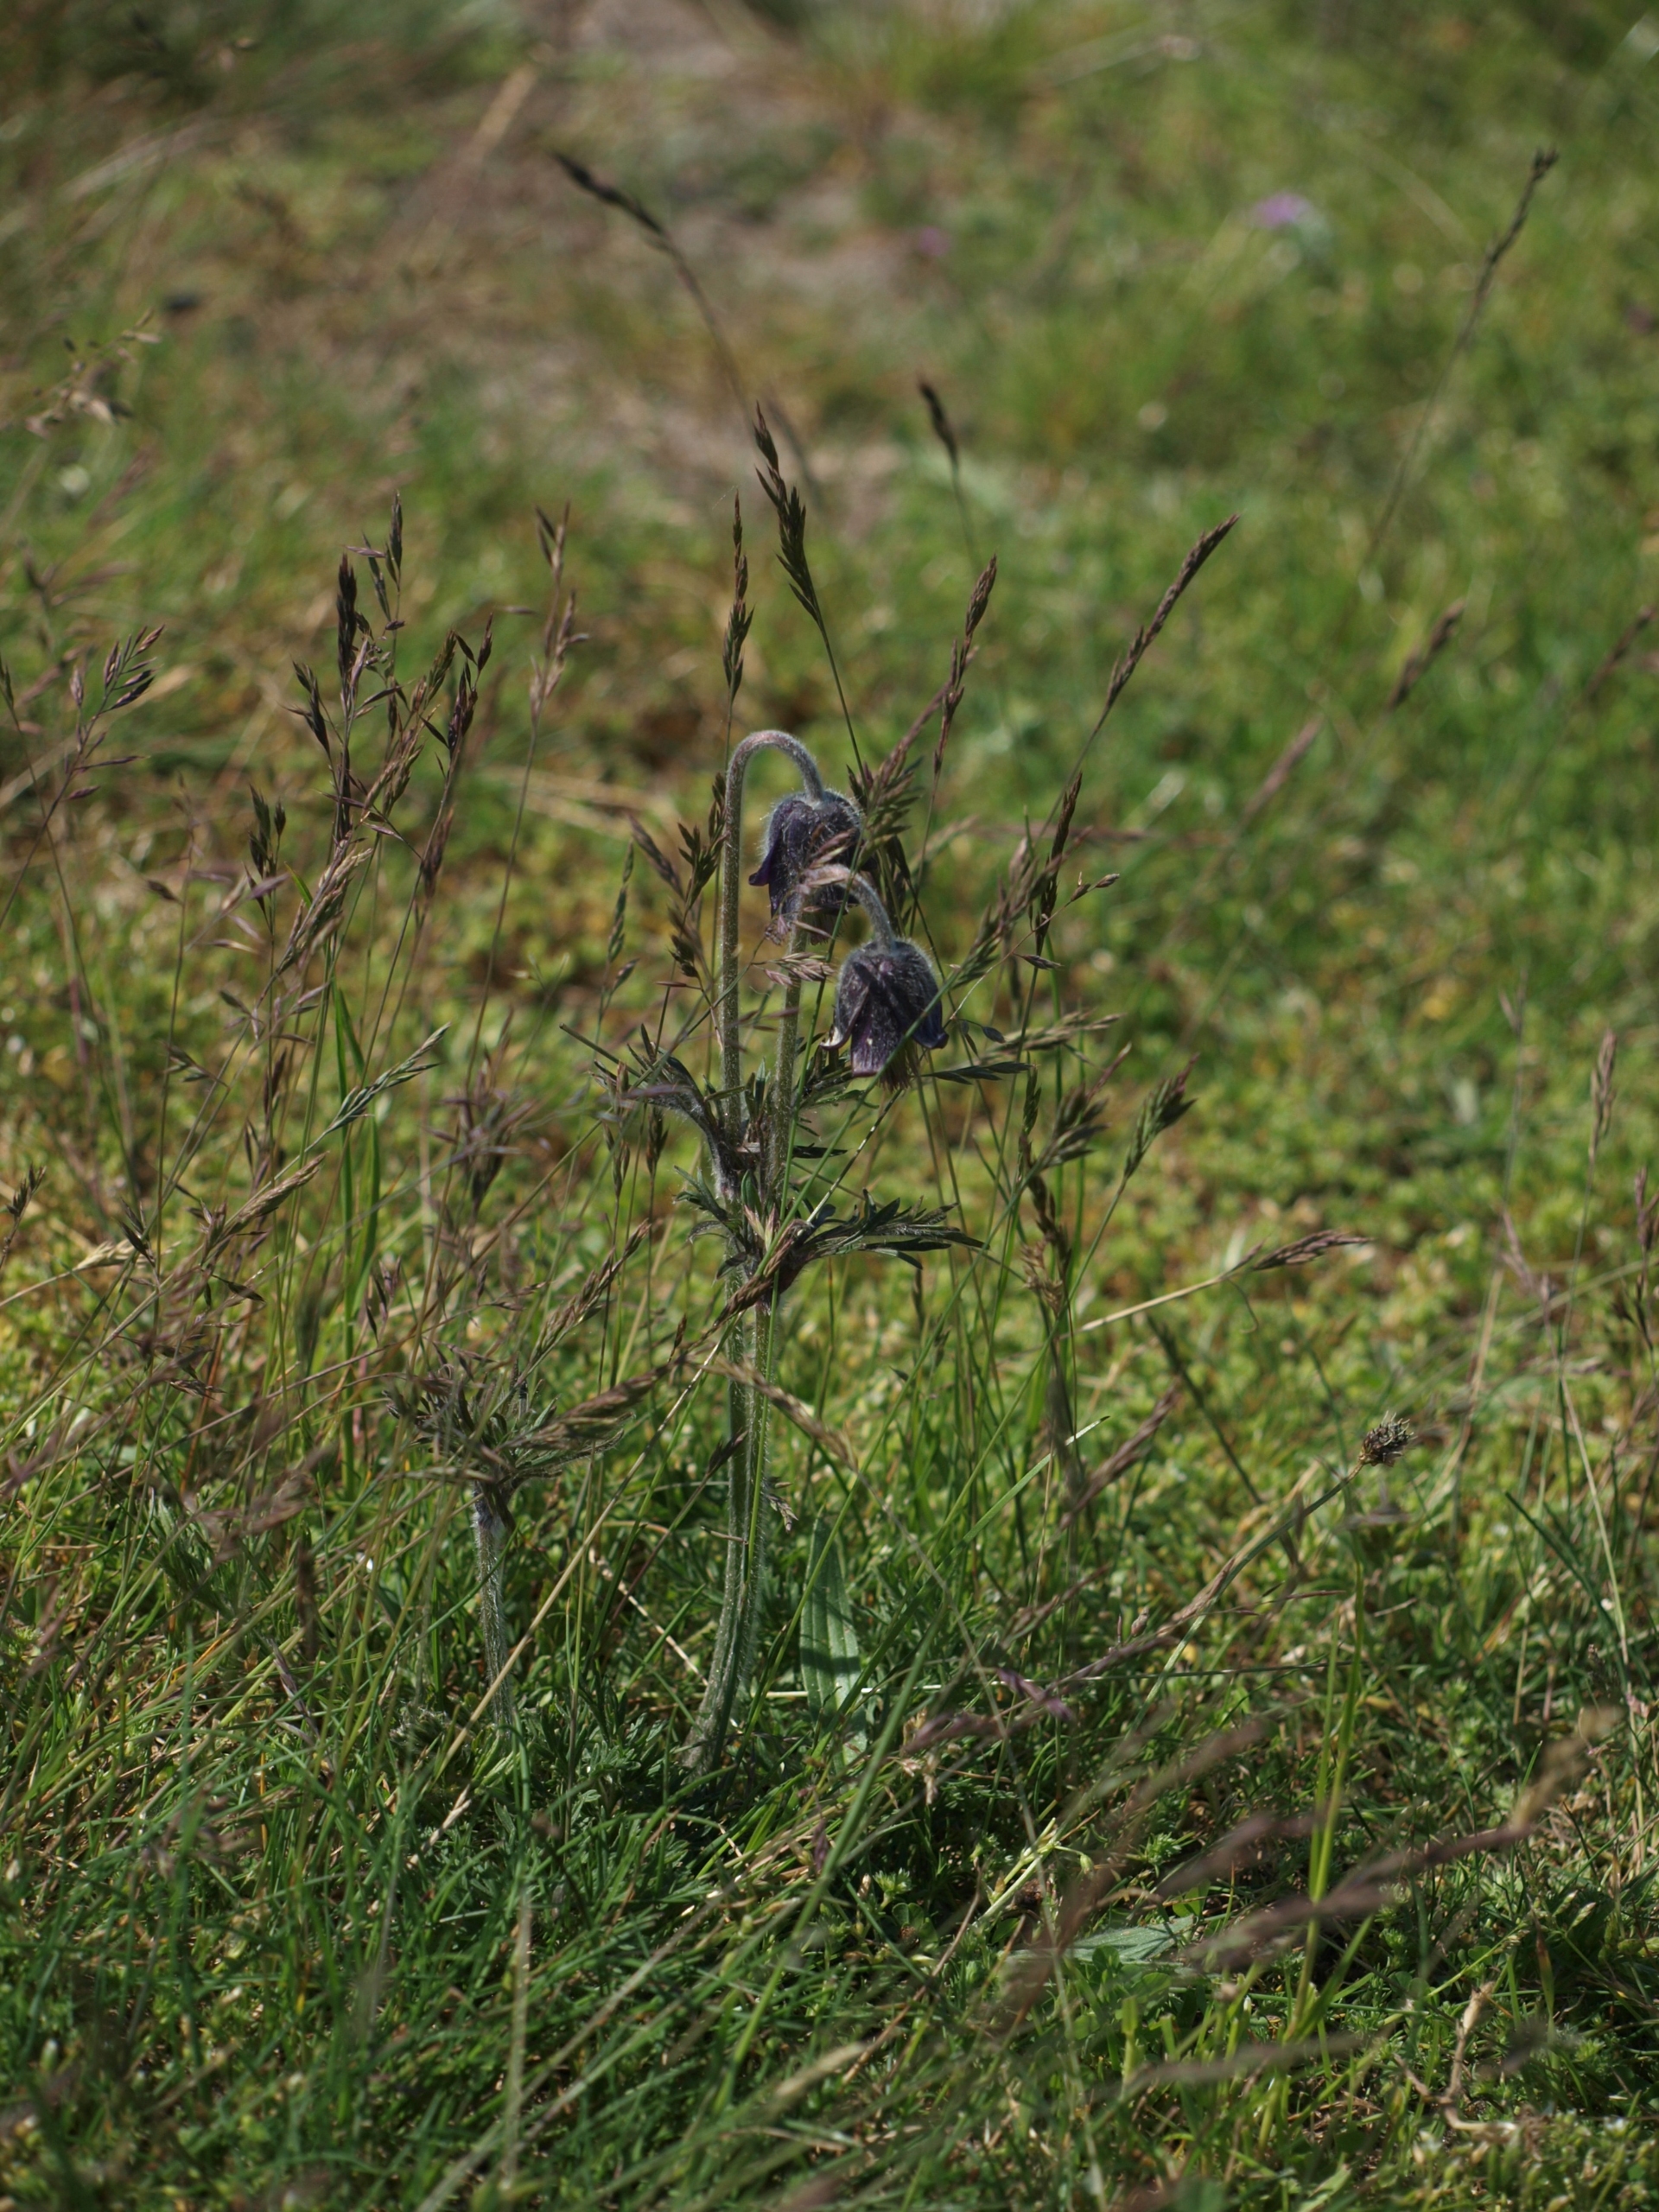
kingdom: Plantae
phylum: Tracheophyta
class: Magnoliopsida
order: Ranunculales
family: Ranunculaceae
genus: Pulsatilla
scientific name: Pulsatilla pratensis
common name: Nikkende kobjælde
